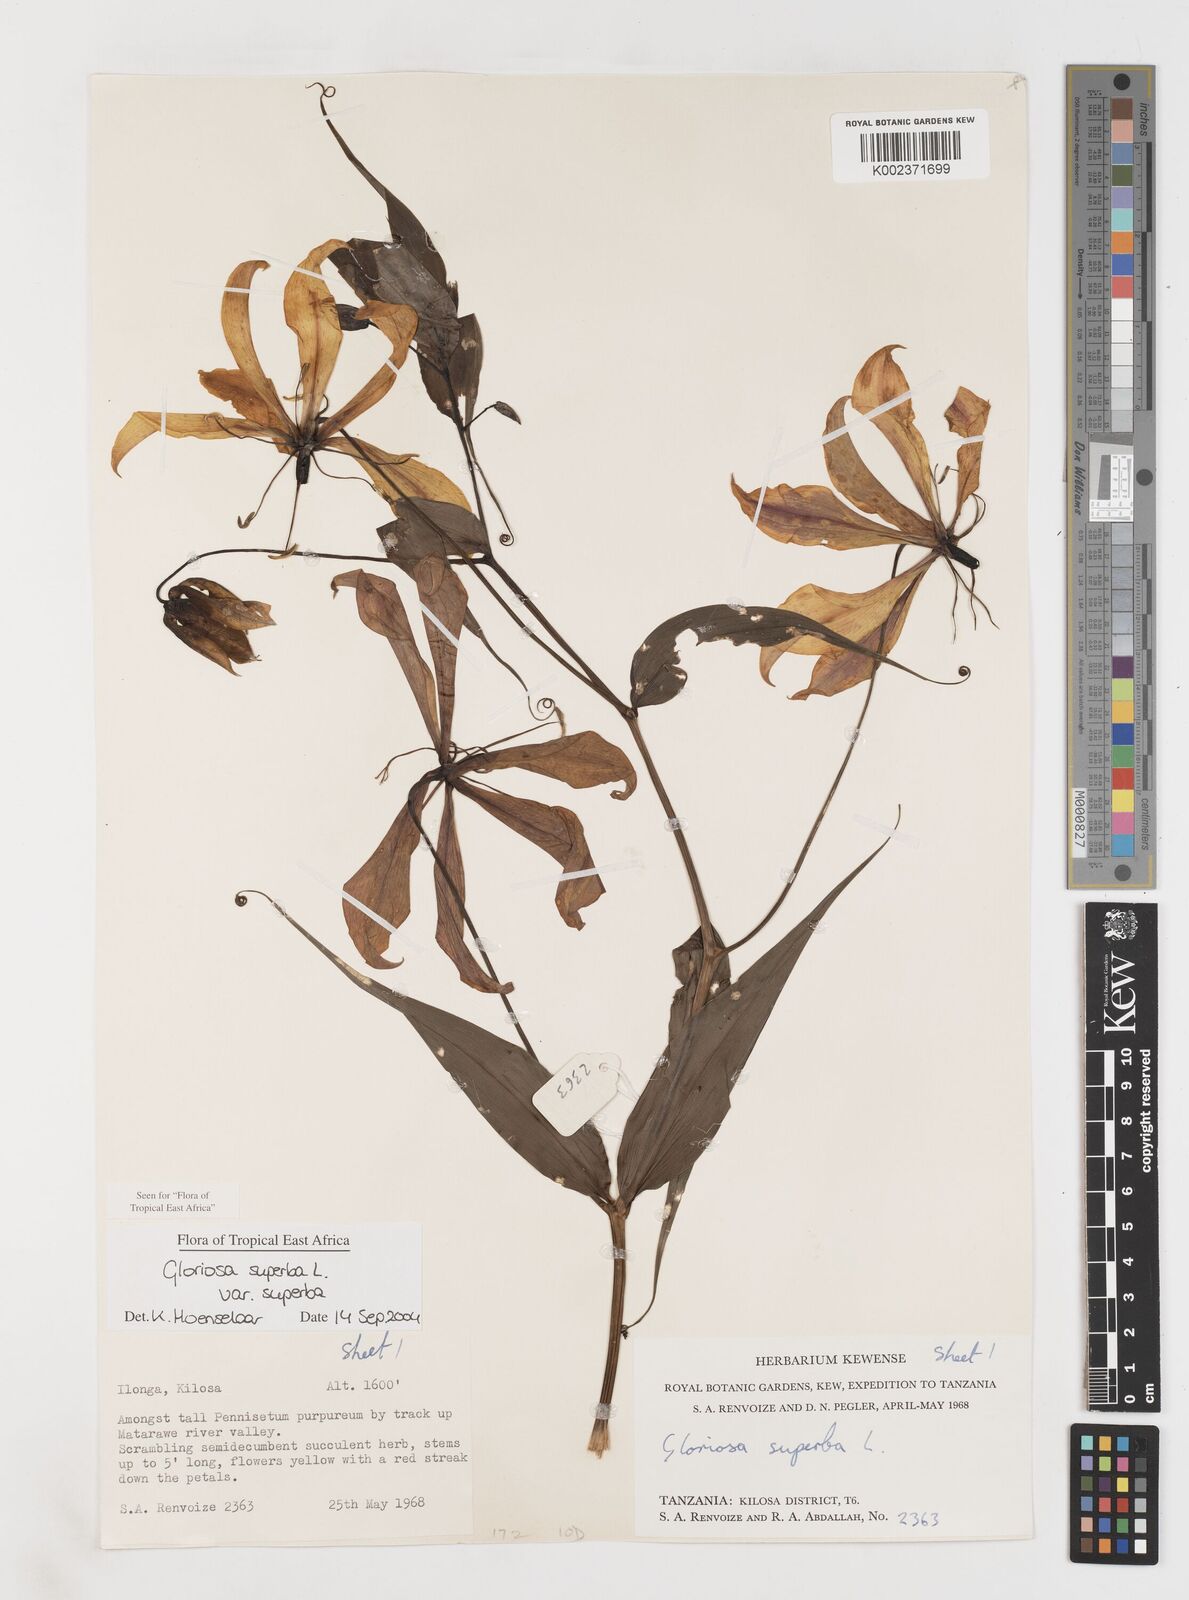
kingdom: Plantae
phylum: Tracheophyta
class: Liliopsida
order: Liliales
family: Colchicaceae
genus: Gloriosa
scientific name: Gloriosa simplex
